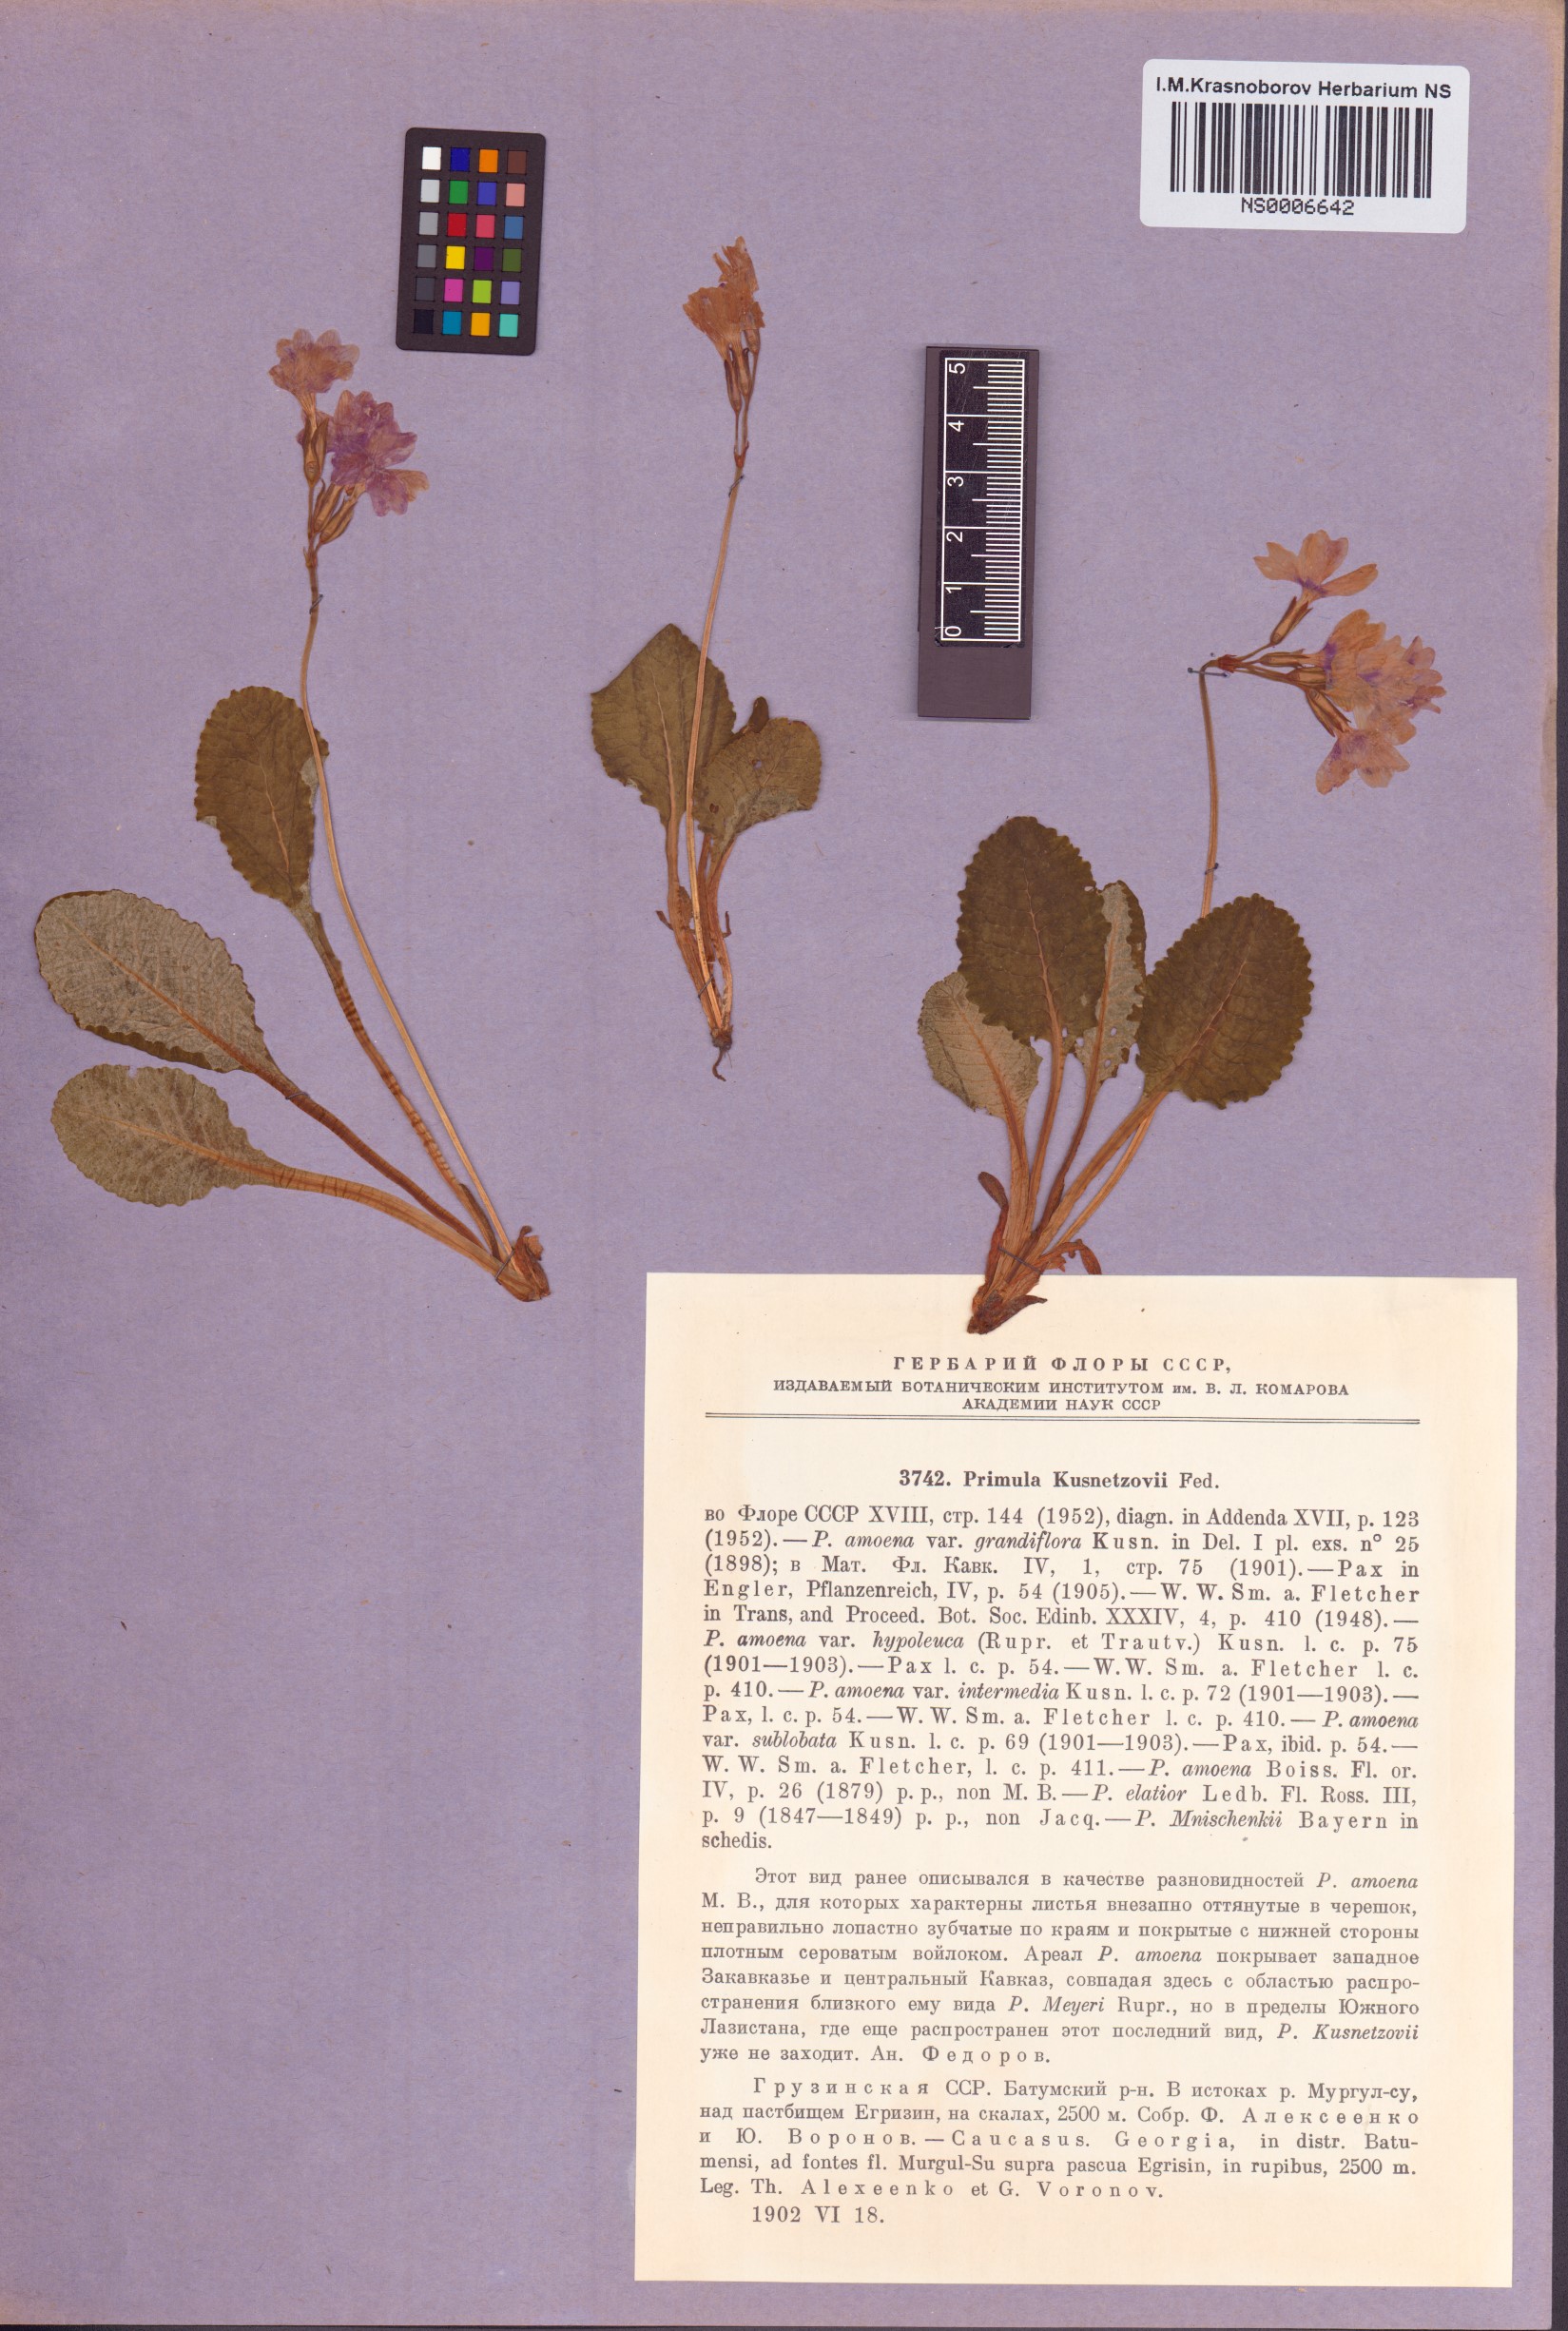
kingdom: Plantae
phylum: Tracheophyta
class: Magnoliopsida
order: Ericales
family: Primulaceae
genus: Primula
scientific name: Primula amoena
